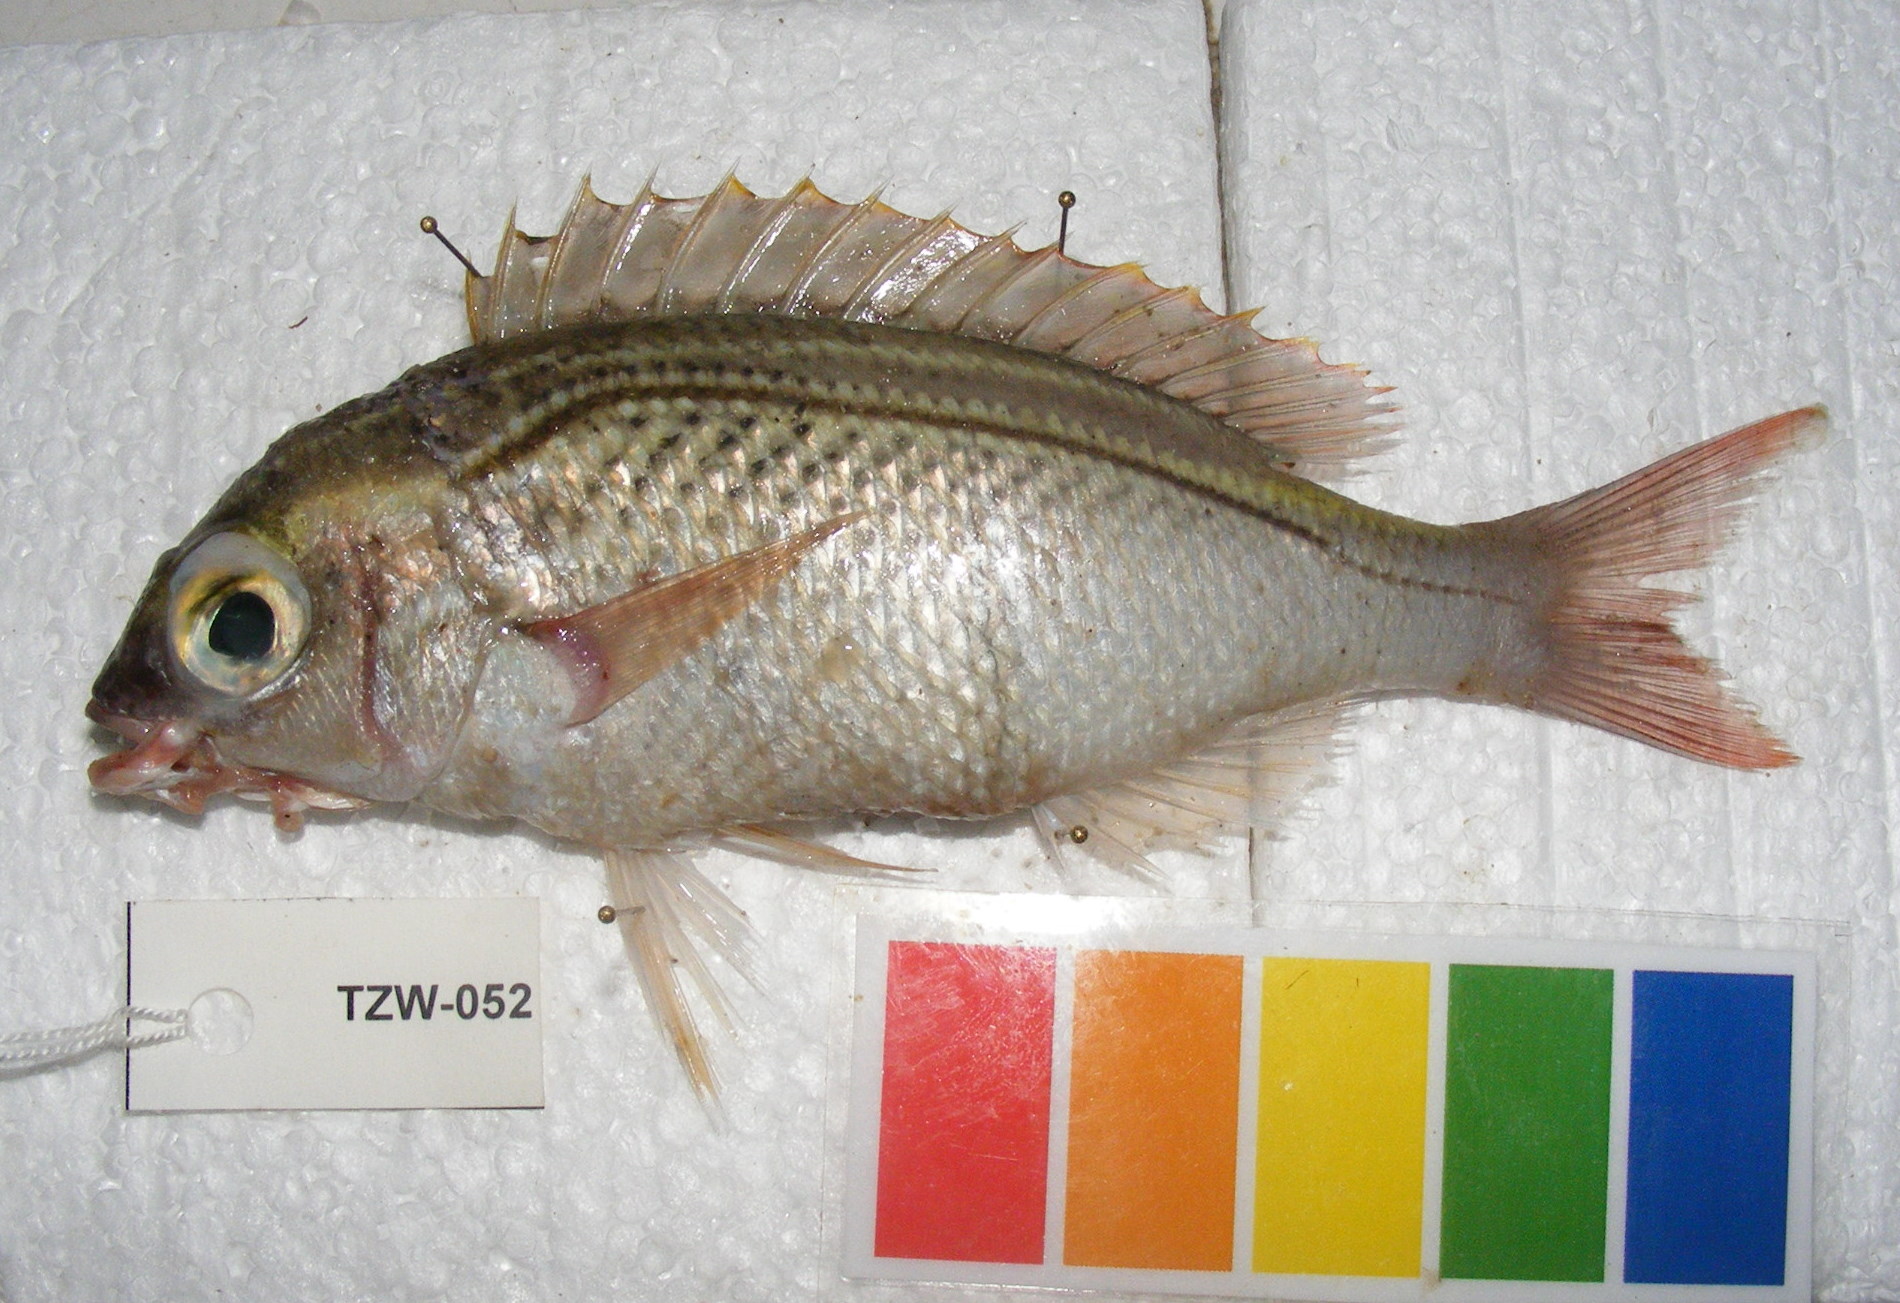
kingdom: Animalia
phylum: Chordata
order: Perciformes
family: Nemipteridae
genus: Scolopsis
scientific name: Scolopsis ghanam
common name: Arabian monocle bream
